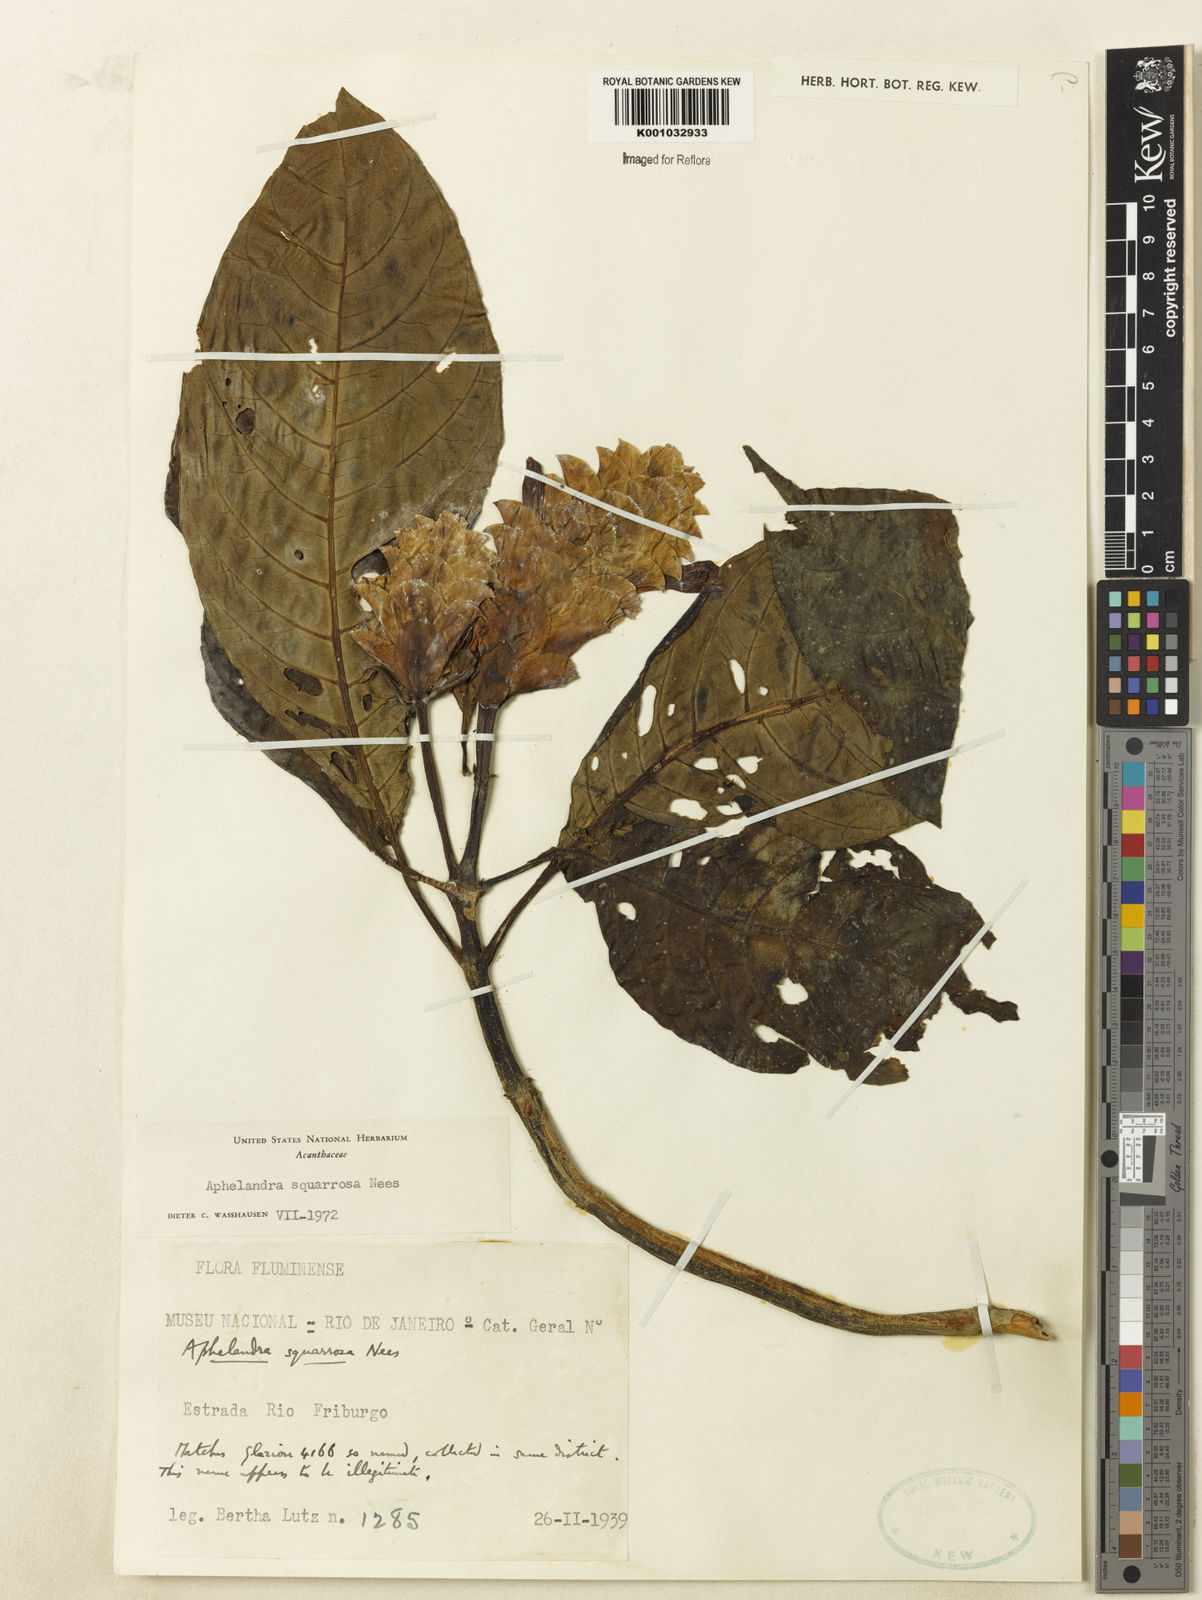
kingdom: Plantae
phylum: Tracheophyta
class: Magnoliopsida
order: Lamiales
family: Acanthaceae
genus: Aphelandra
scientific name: Aphelandra squarrosa
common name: Saffron spike
